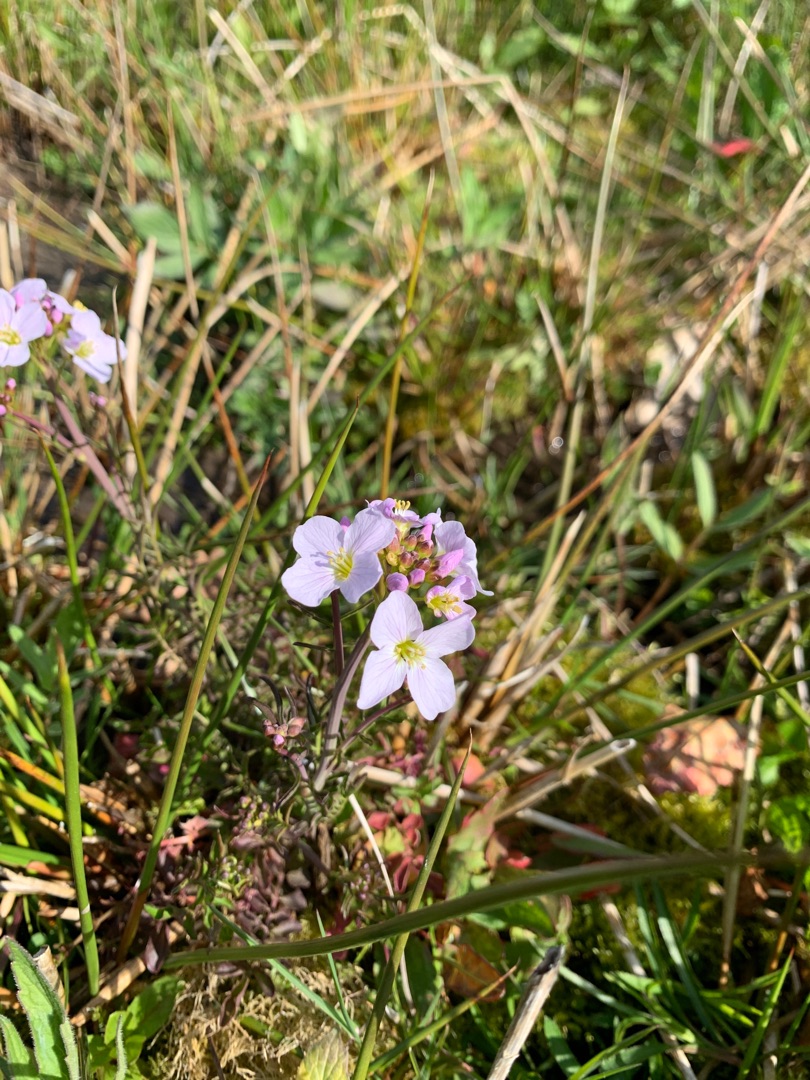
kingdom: Plantae
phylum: Tracheophyta
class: Magnoliopsida
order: Brassicales
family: Brassicaceae
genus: Cardamine
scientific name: Cardamine pratensis
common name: Engkarse
